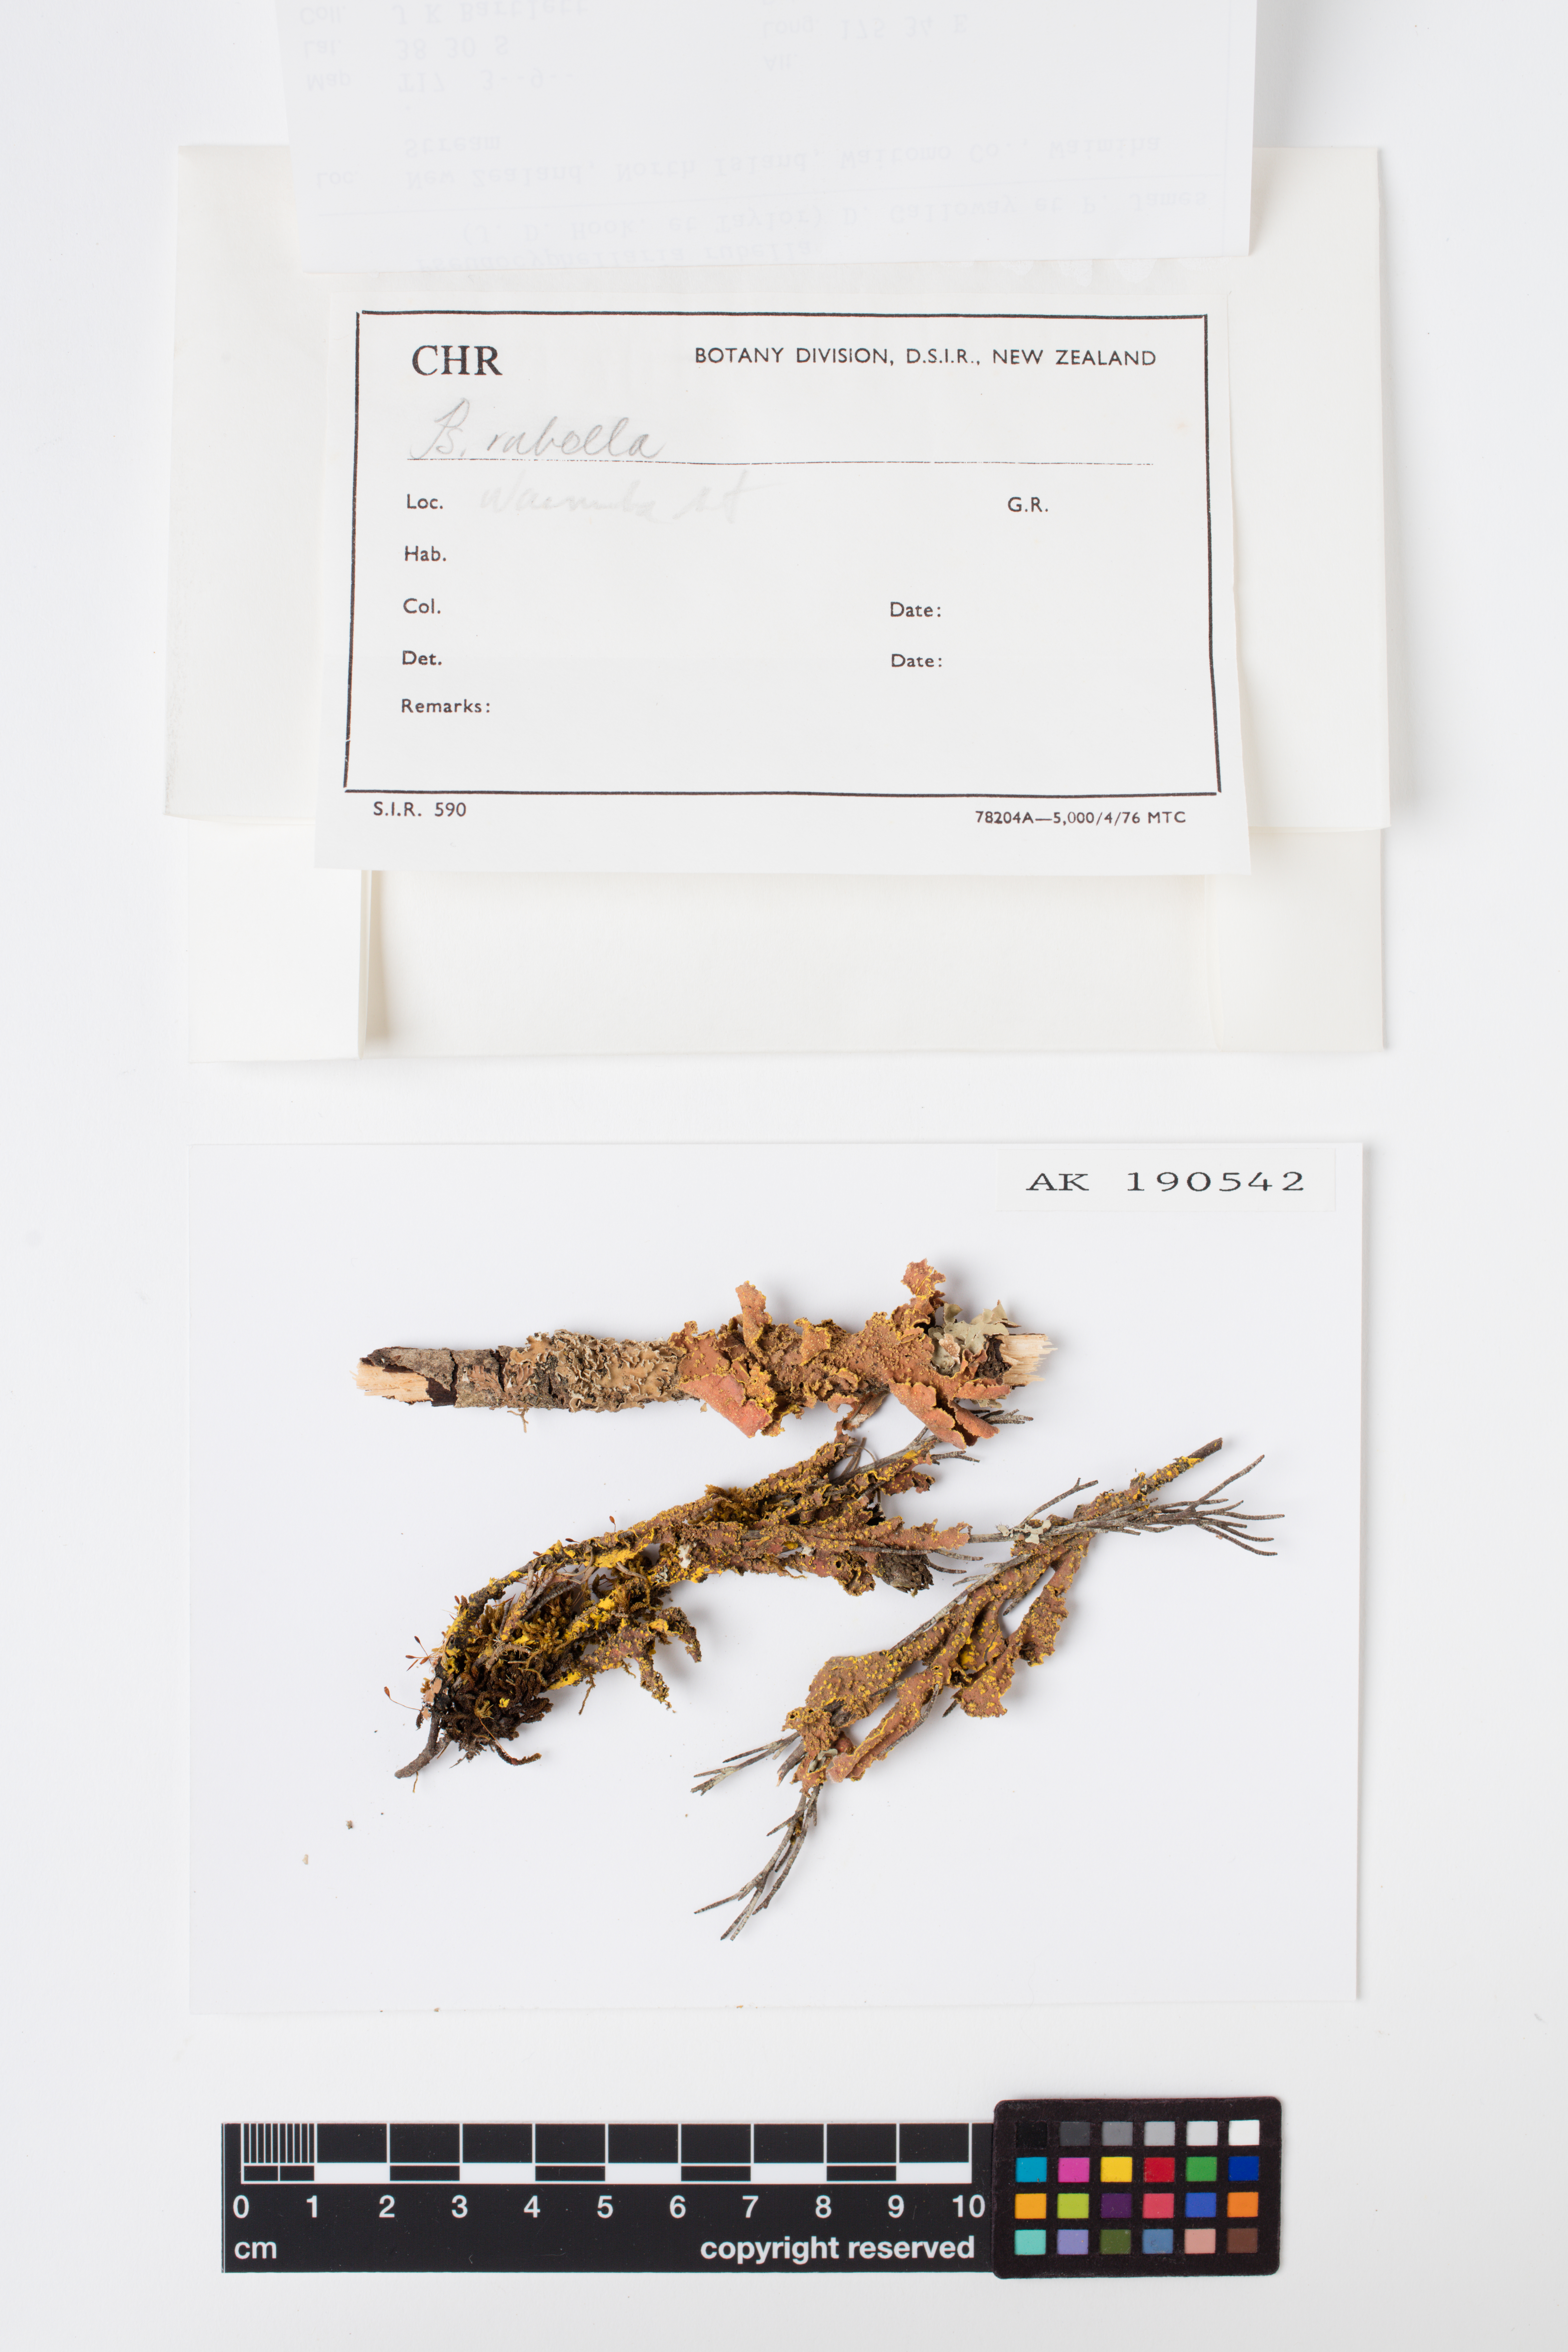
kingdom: Fungi
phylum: Ascomycota
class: Lecanoromycetes
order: Peltigerales
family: Lobariaceae
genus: Pseudocyphellaria
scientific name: Pseudocyphellaria rubella
